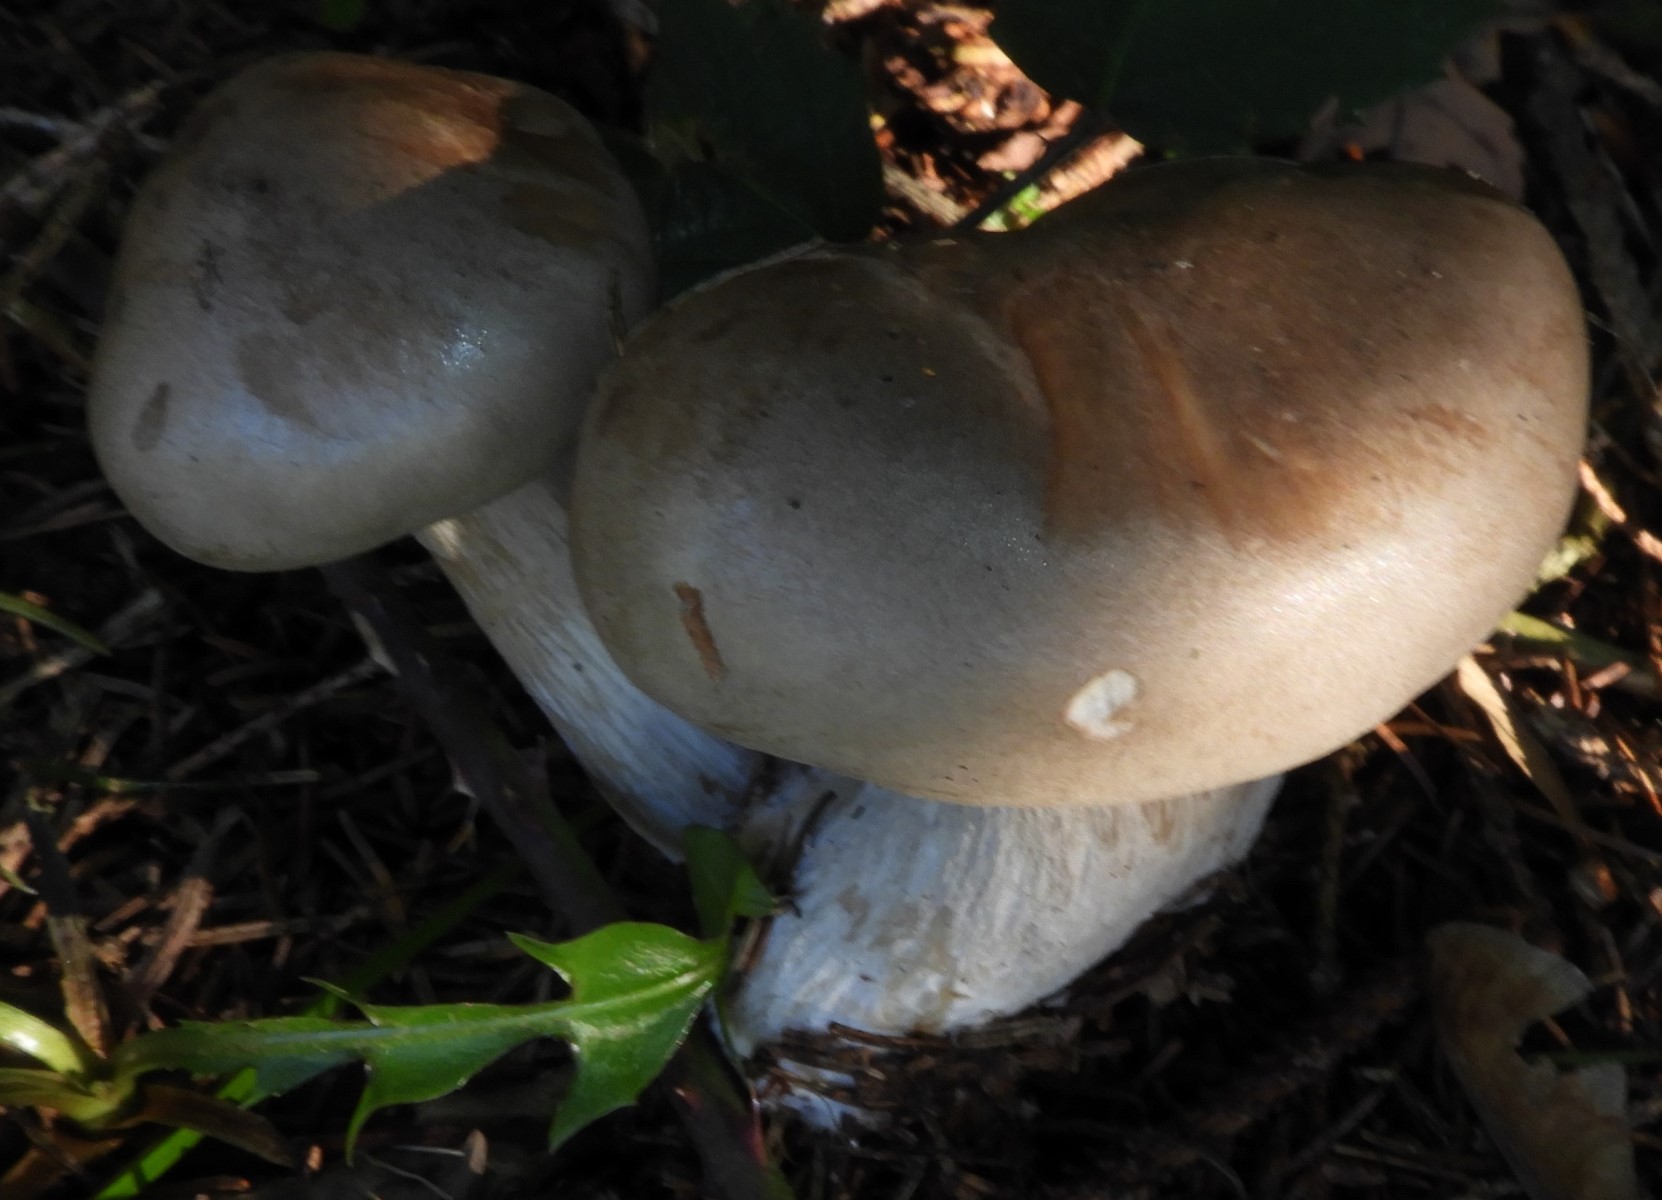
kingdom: Fungi
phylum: Basidiomycota
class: Agaricomycetes
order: Agaricales
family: Tricholomataceae
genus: Clitocybe
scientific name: Clitocybe nebularis
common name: tåge-tragthat
